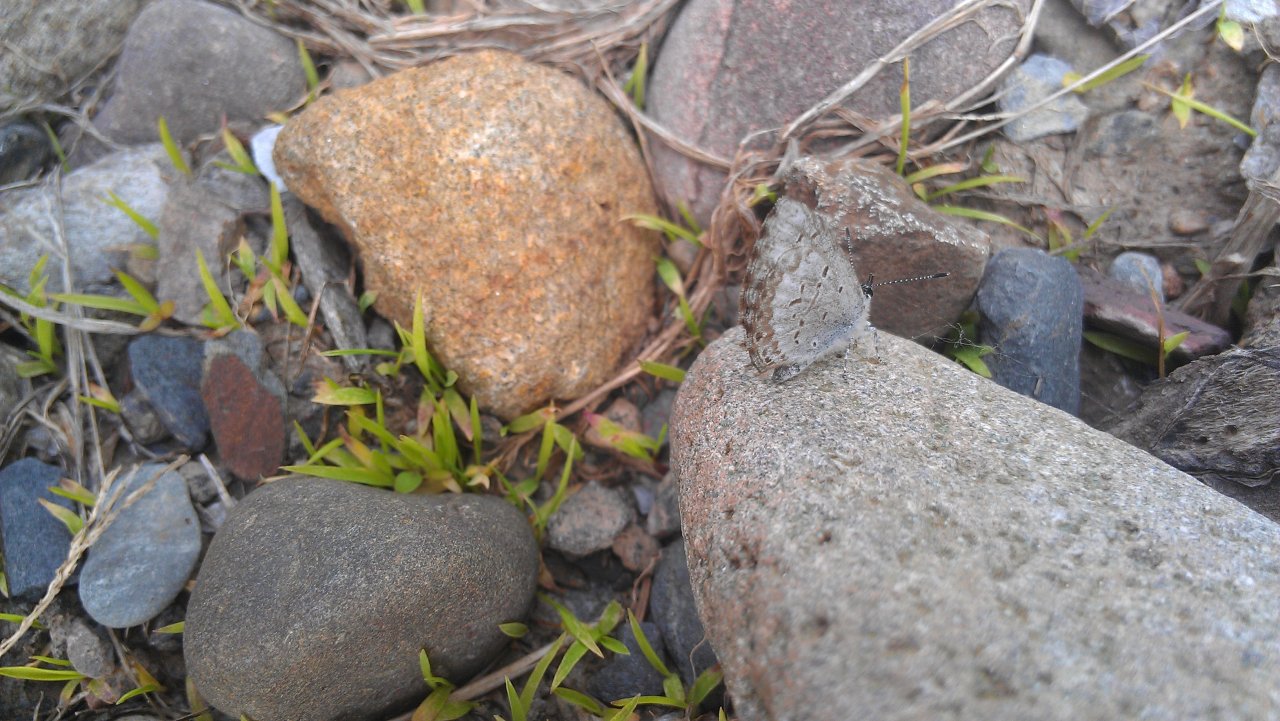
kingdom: Animalia
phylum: Arthropoda
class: Insecta
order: Lepidoptera
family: Lycaenidae
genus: Celastrina
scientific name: Celastrina lucia
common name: Northern Spring Azure
